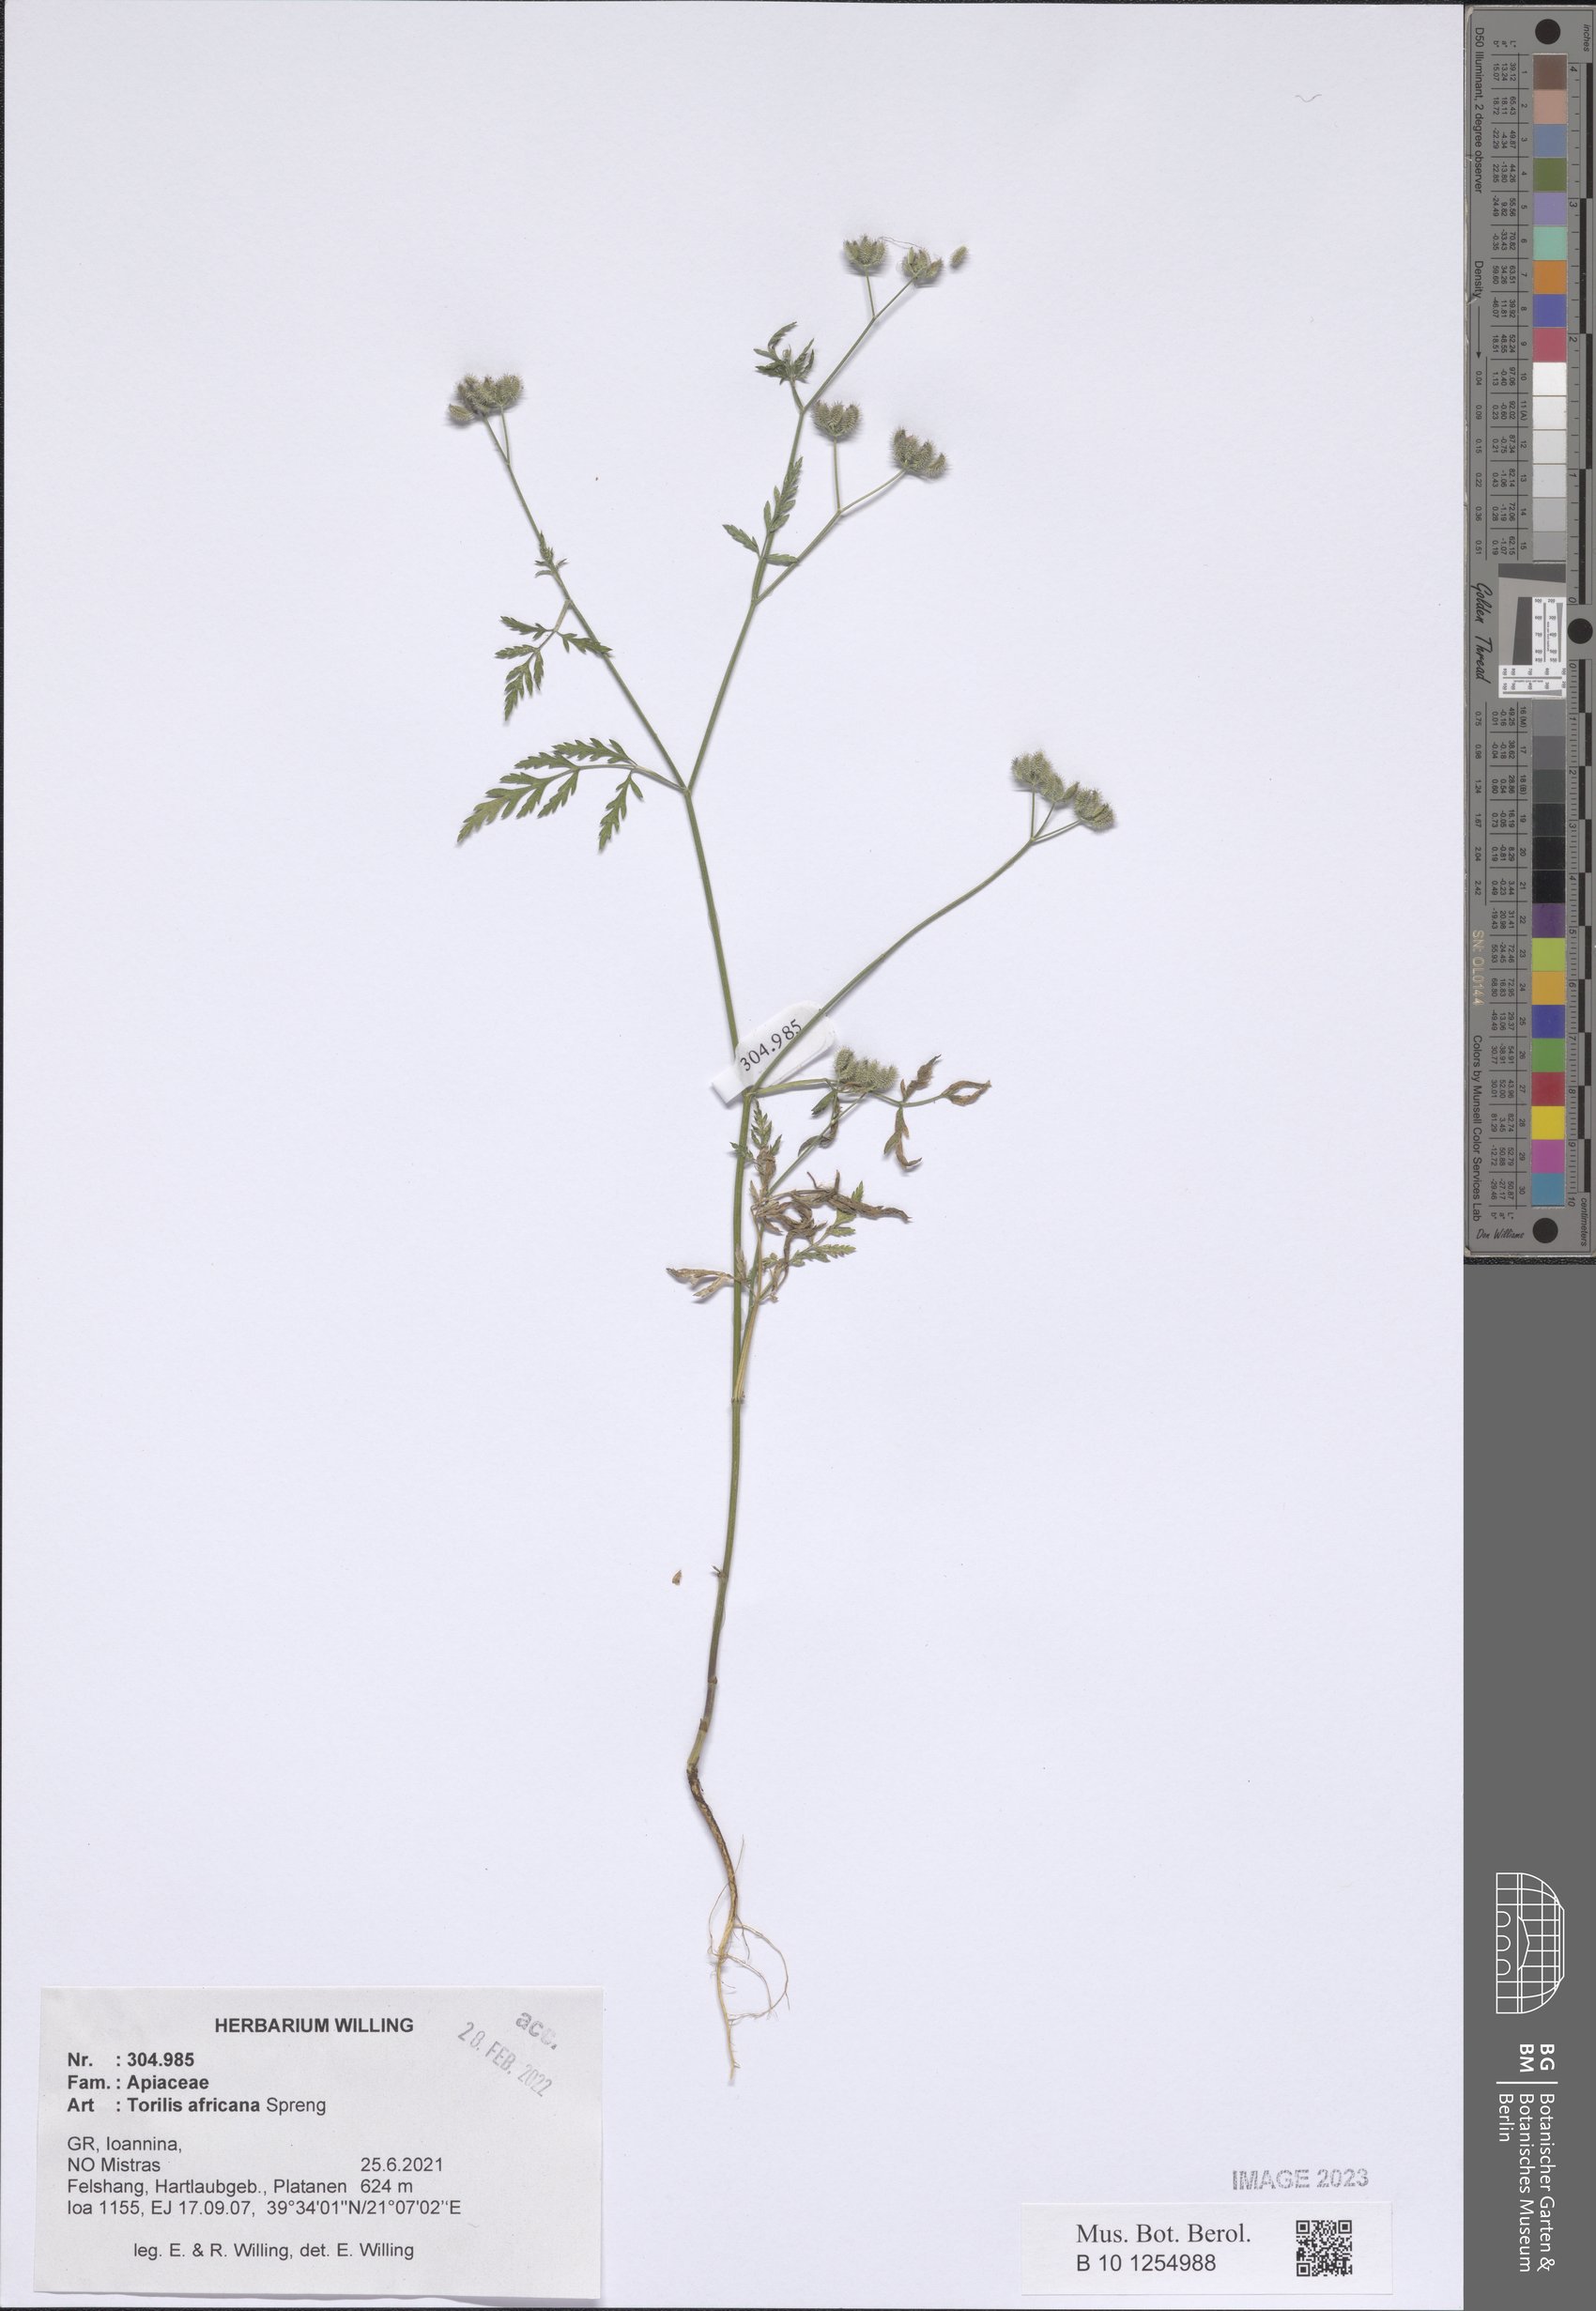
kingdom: Plantae
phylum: Tracheophyta
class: Magnoliopsida
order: Apiales
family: Apiaceae
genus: Torilis
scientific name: Torilis africana
